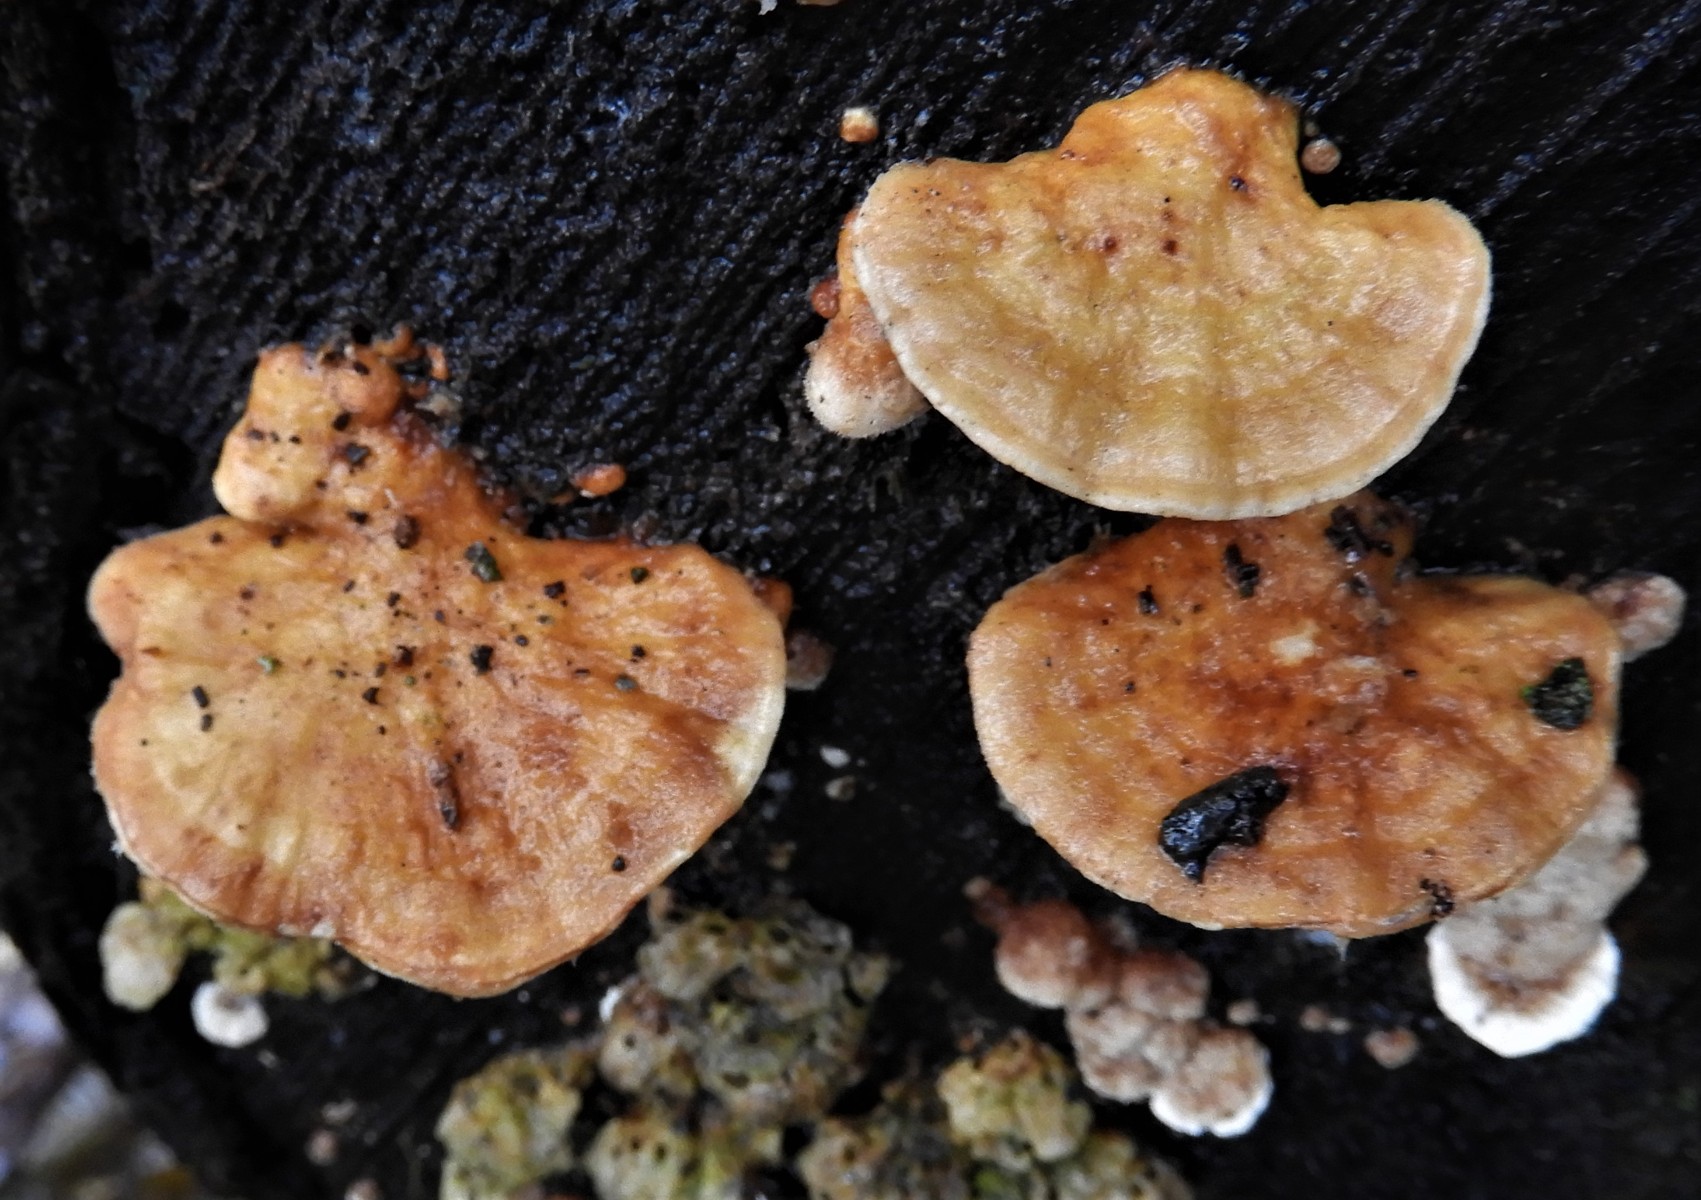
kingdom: Fungi
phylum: Basidiomycota
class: Agaricomycetes
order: Polyporales
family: Polyporaceae
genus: Trametes
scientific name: Trametes ochracea
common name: bæltet læderporesvamp
